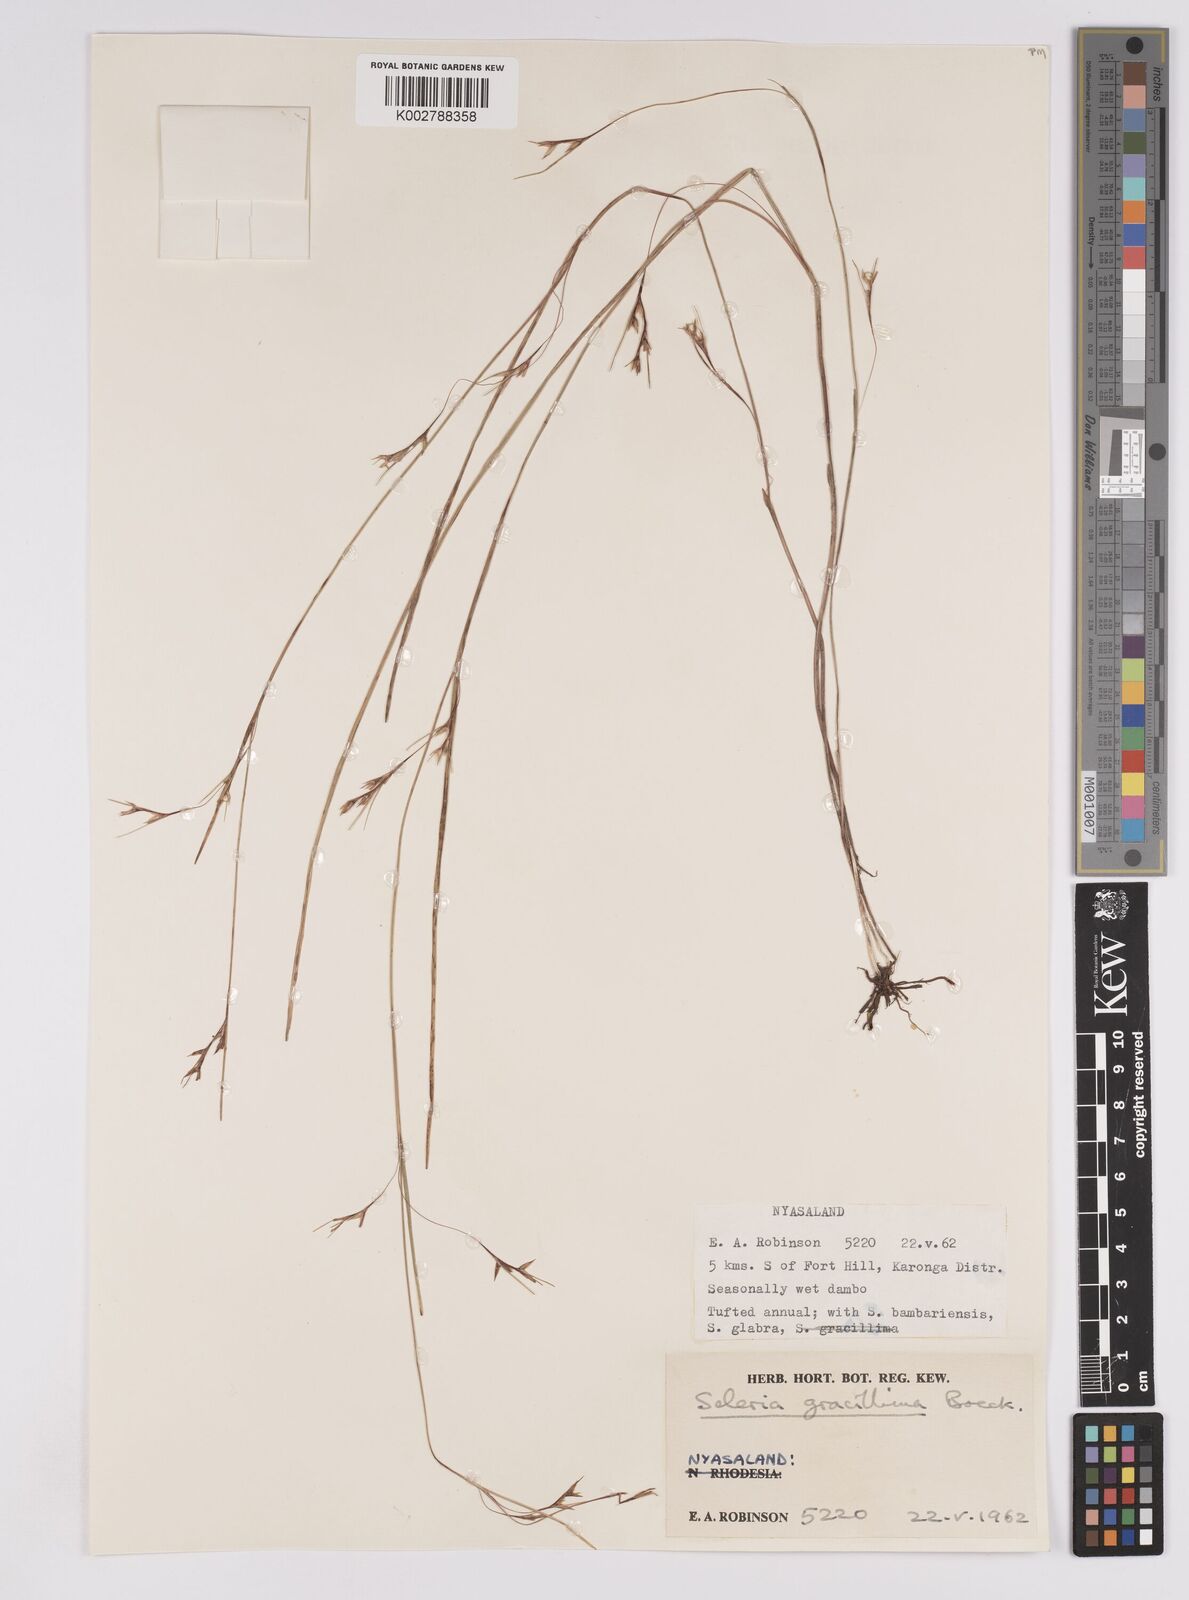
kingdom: Plantae
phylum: Tracheophyta
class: Liliopsida
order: Poales
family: Cyperaceae
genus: Scleria
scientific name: Scleria gracillima
